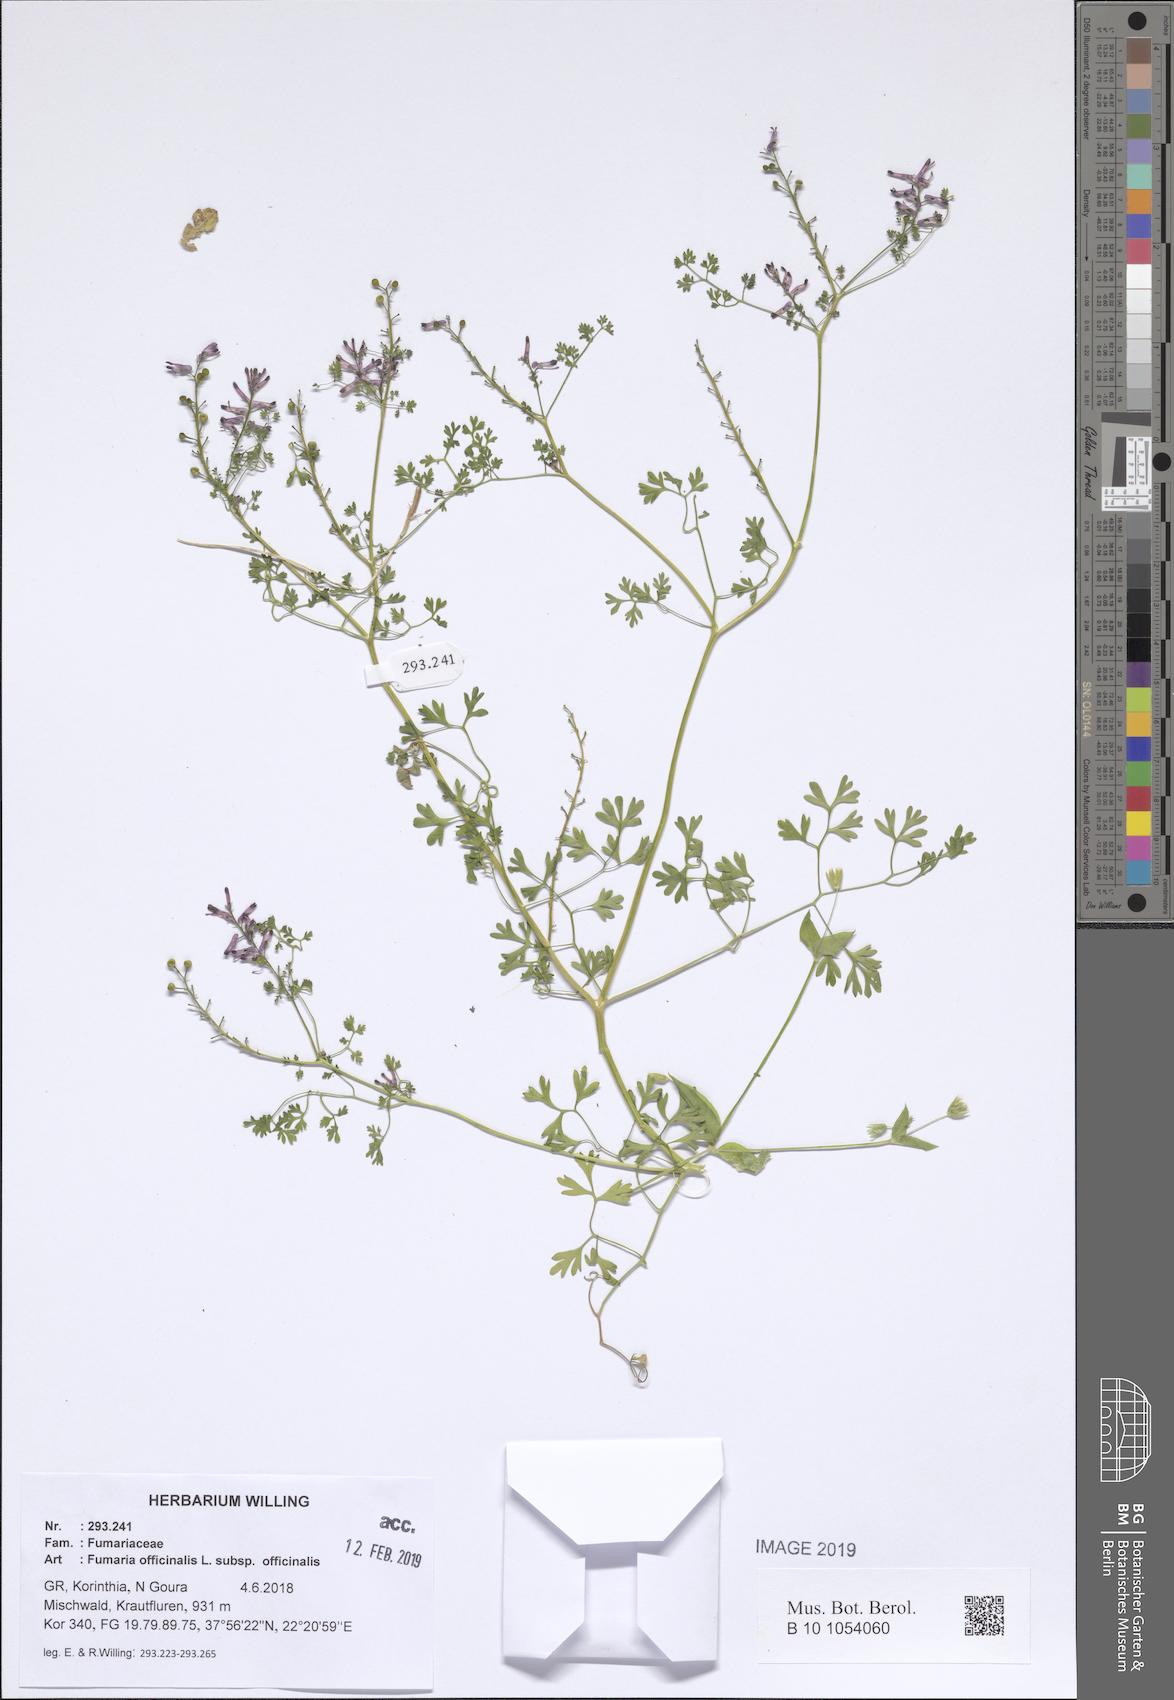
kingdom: Plantae
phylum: Tracheophyta
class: Magnoliopsida
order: Ranunculales
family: Papaveraceae
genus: Fumaria
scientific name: Fumaria officinalis
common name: Common fumitory
